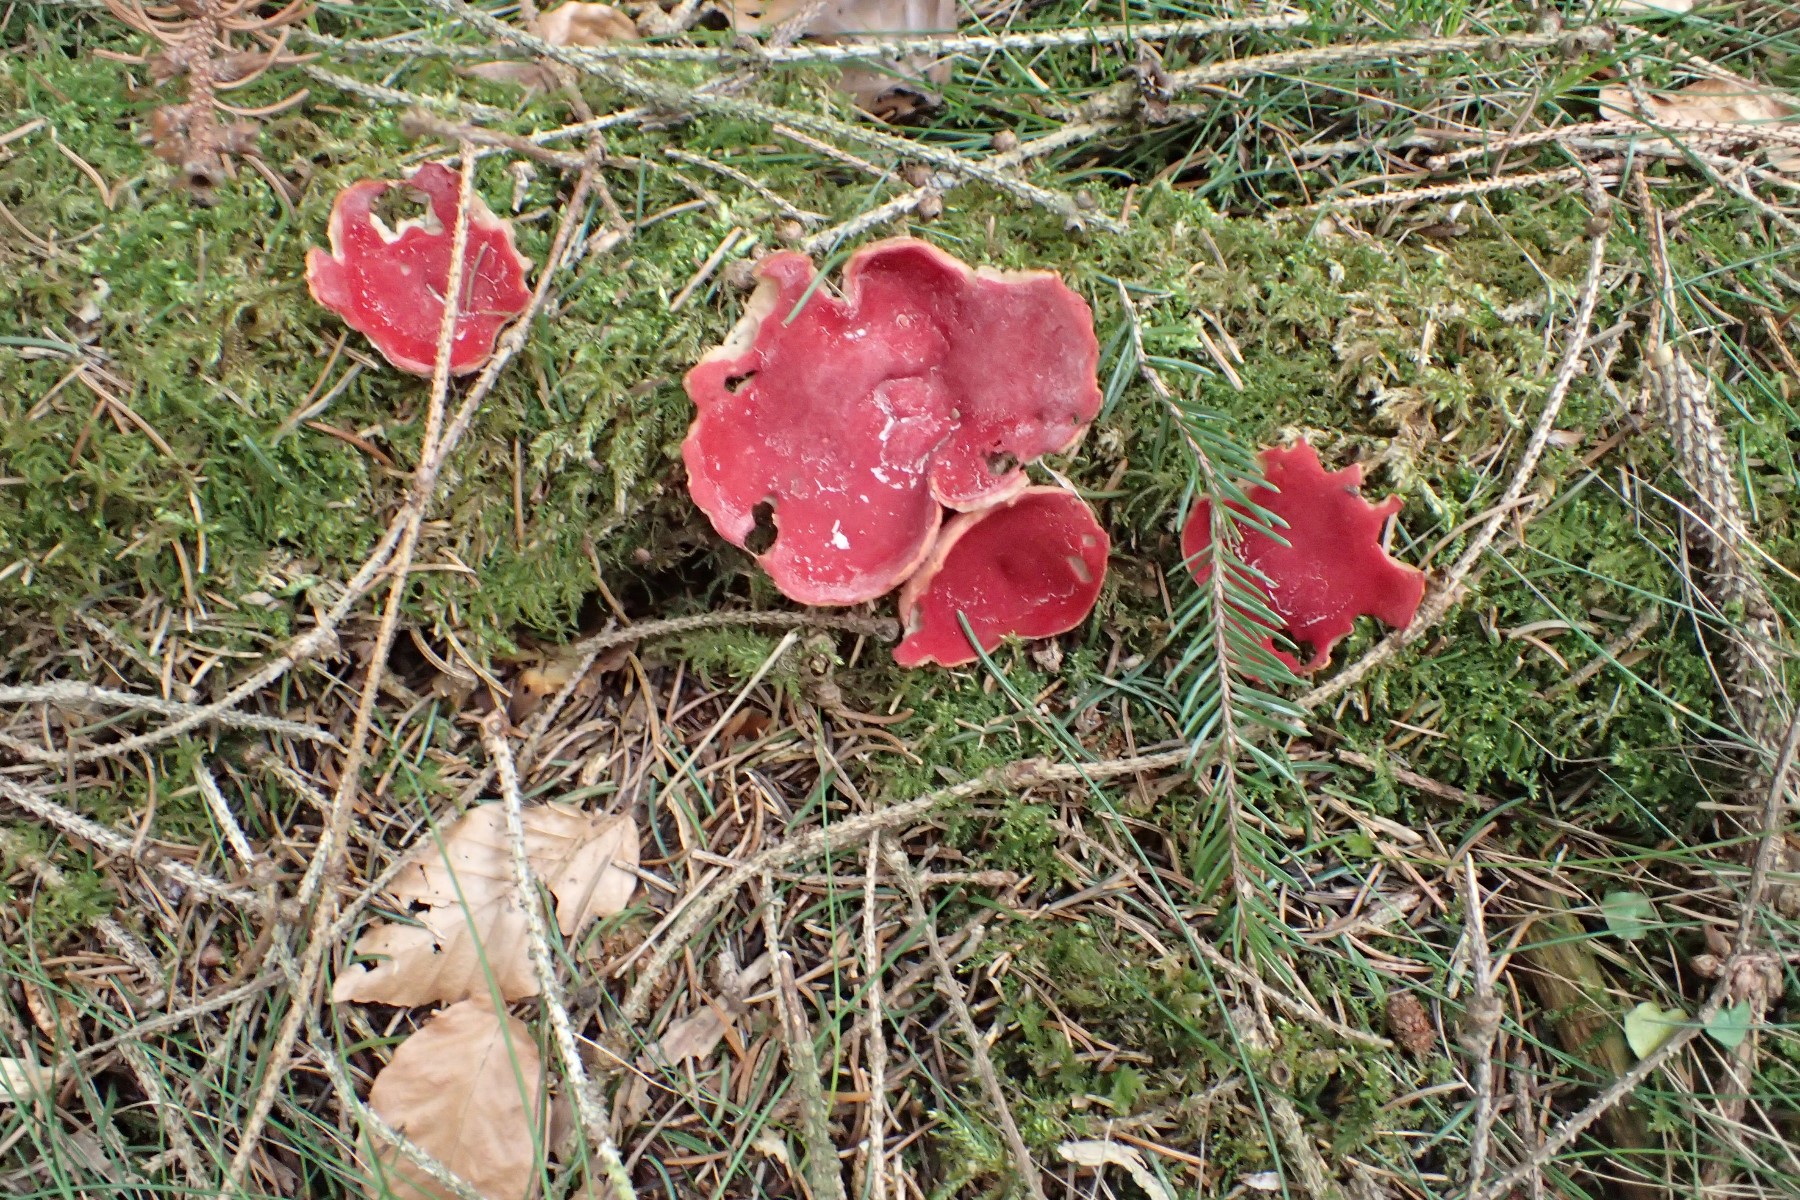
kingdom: Fungi
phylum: Ascomycota
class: Pezizomycetes
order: Pezizales
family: Sarcoscyphaceae
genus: Sarcoscypha
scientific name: Sarcoscypha austriaca
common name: krølhåret pragtbæger
